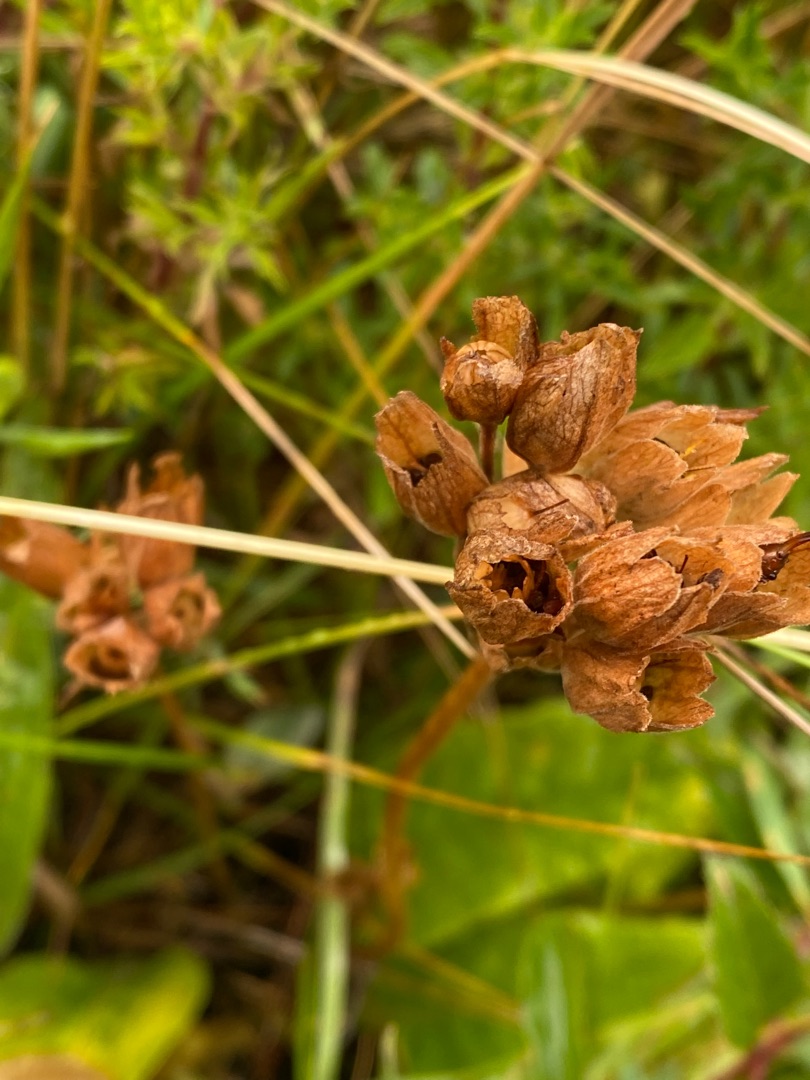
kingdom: Plantae
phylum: Tracheophyta
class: Magnoliopsida
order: Ericales
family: Primulaceae
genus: Primula
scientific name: Primula veris
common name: Hulkravet kodriver
